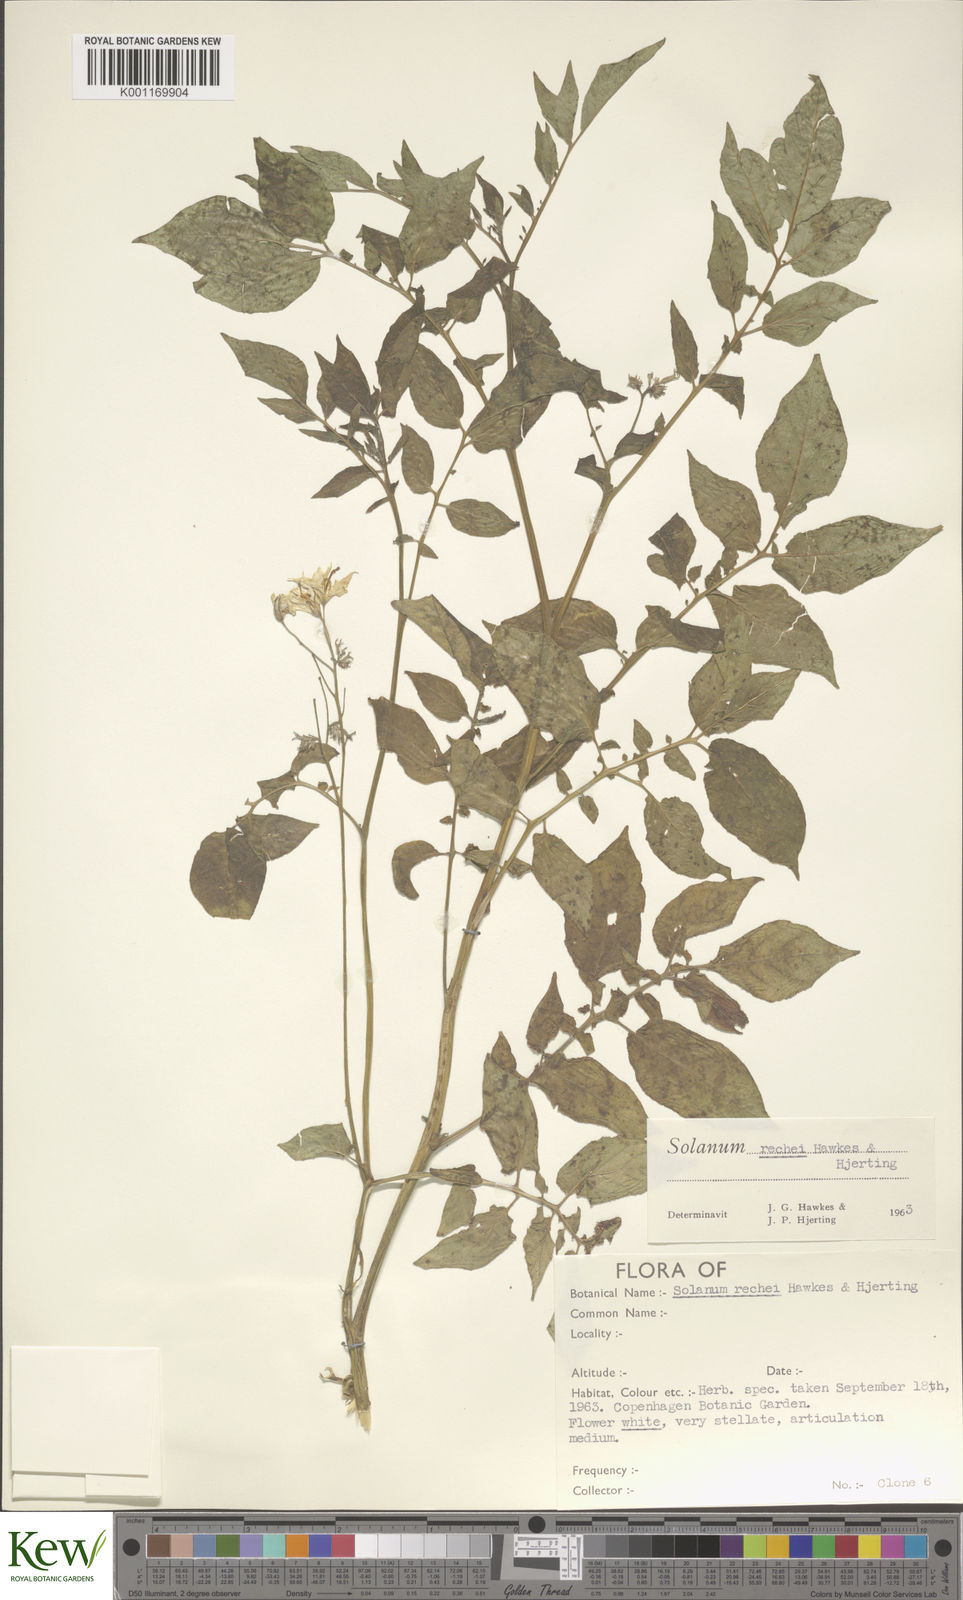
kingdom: Plantae
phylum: Tracheophyta
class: Magnoliopsida
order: Solanales
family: Solanaceae
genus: Solanum
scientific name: Solanum rechei
